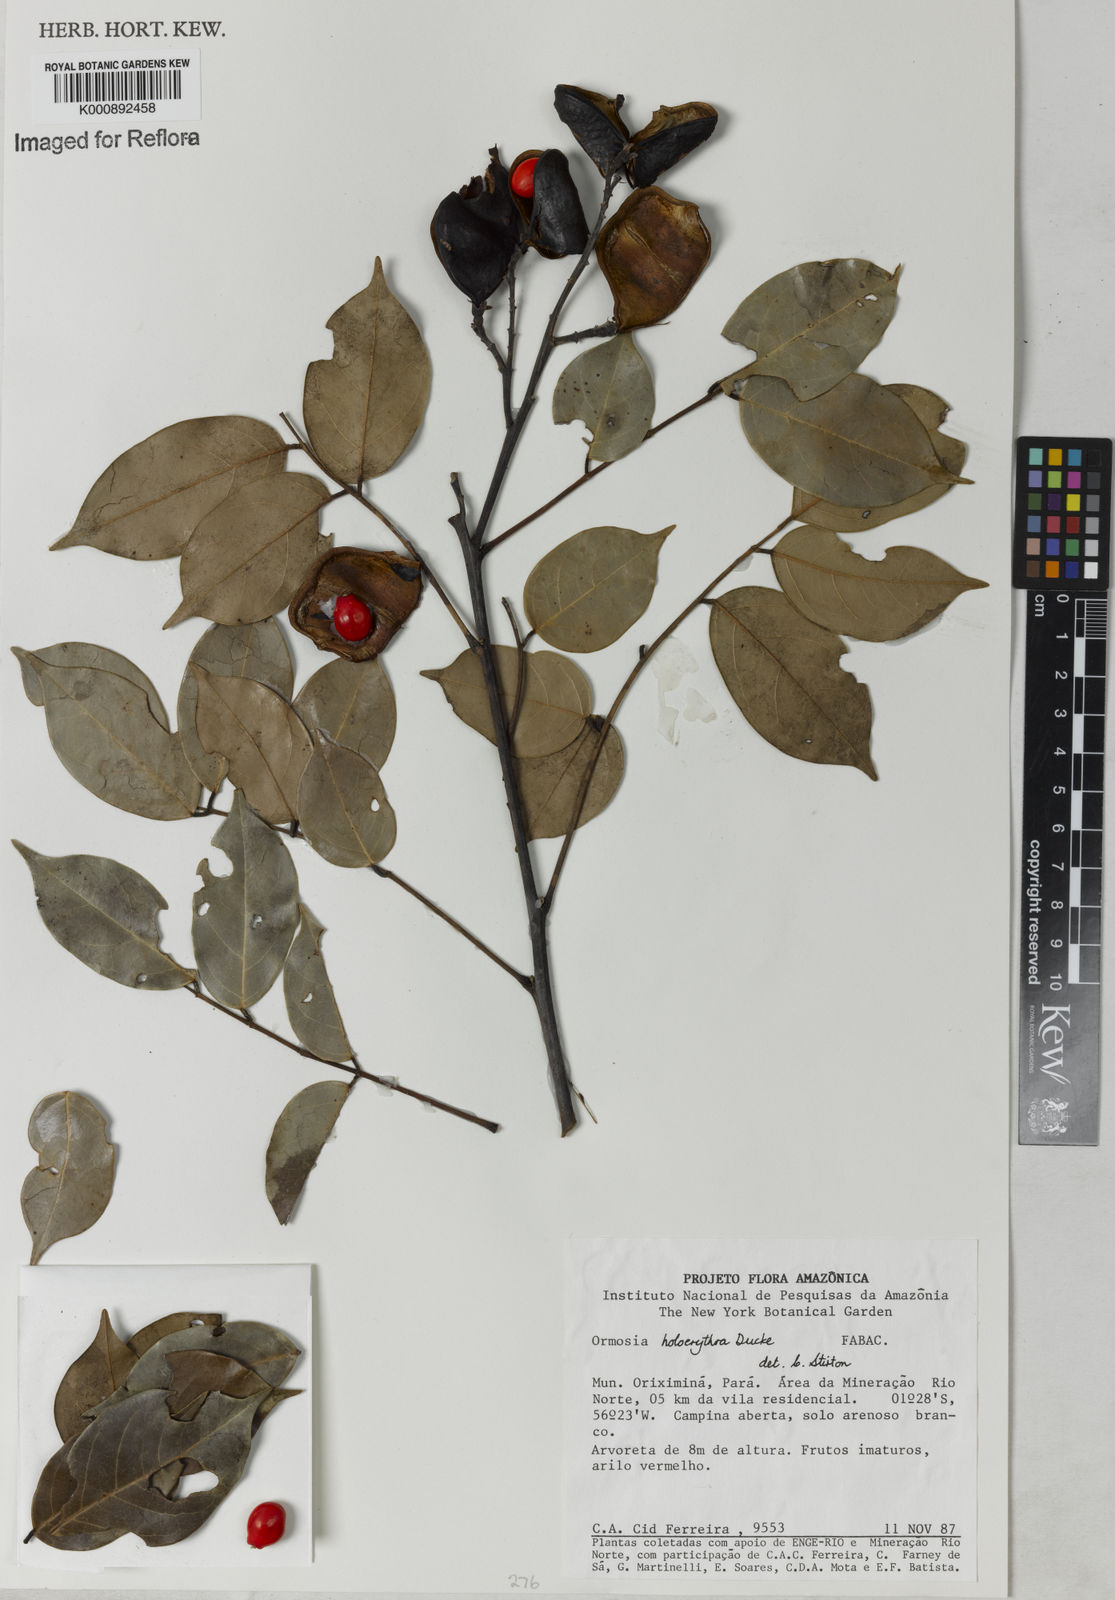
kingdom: Plantae
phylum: Tracheophyta
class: Magnoliopsida
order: Fabales
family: Fabaceae
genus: Ormosia
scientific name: Ormosia holerythra
